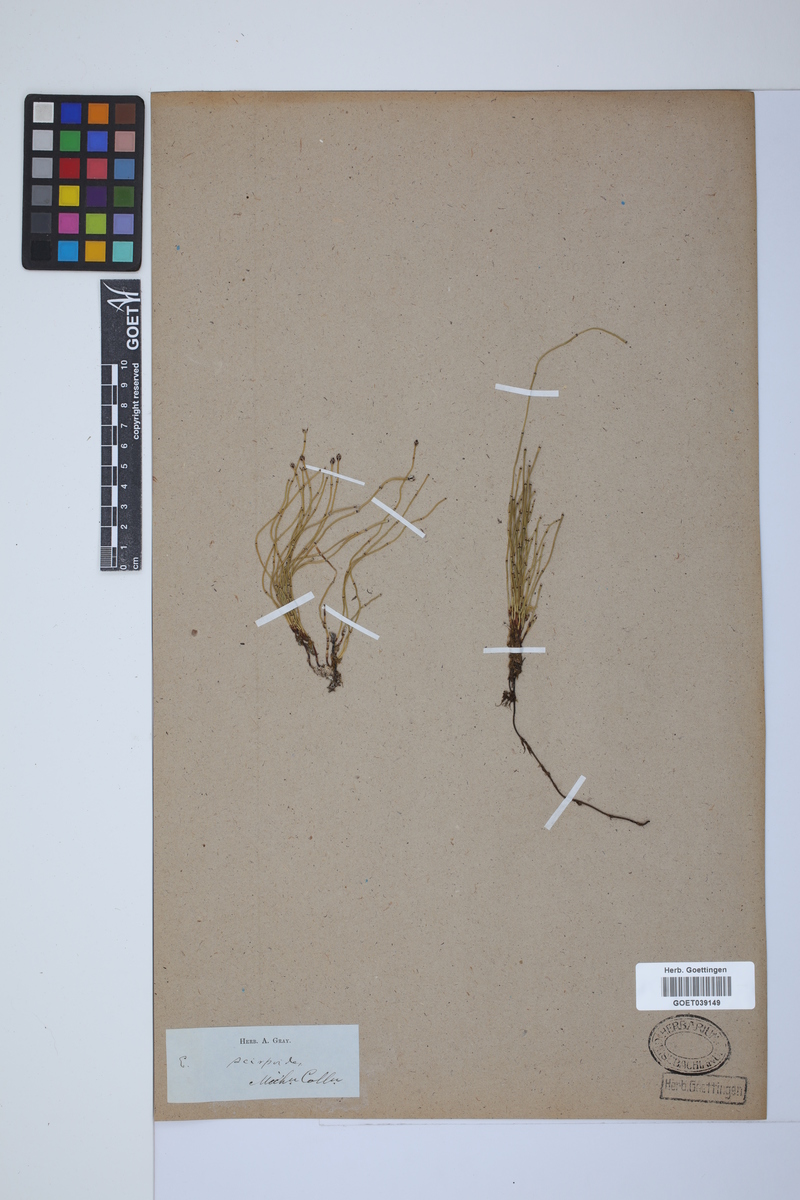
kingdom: Plantae
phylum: Tracheophyta
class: Polypodiopsida
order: Equisetales
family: Equisetaceae
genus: Equisetum
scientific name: Equisetum scirpoides
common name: Delicate horsetail
